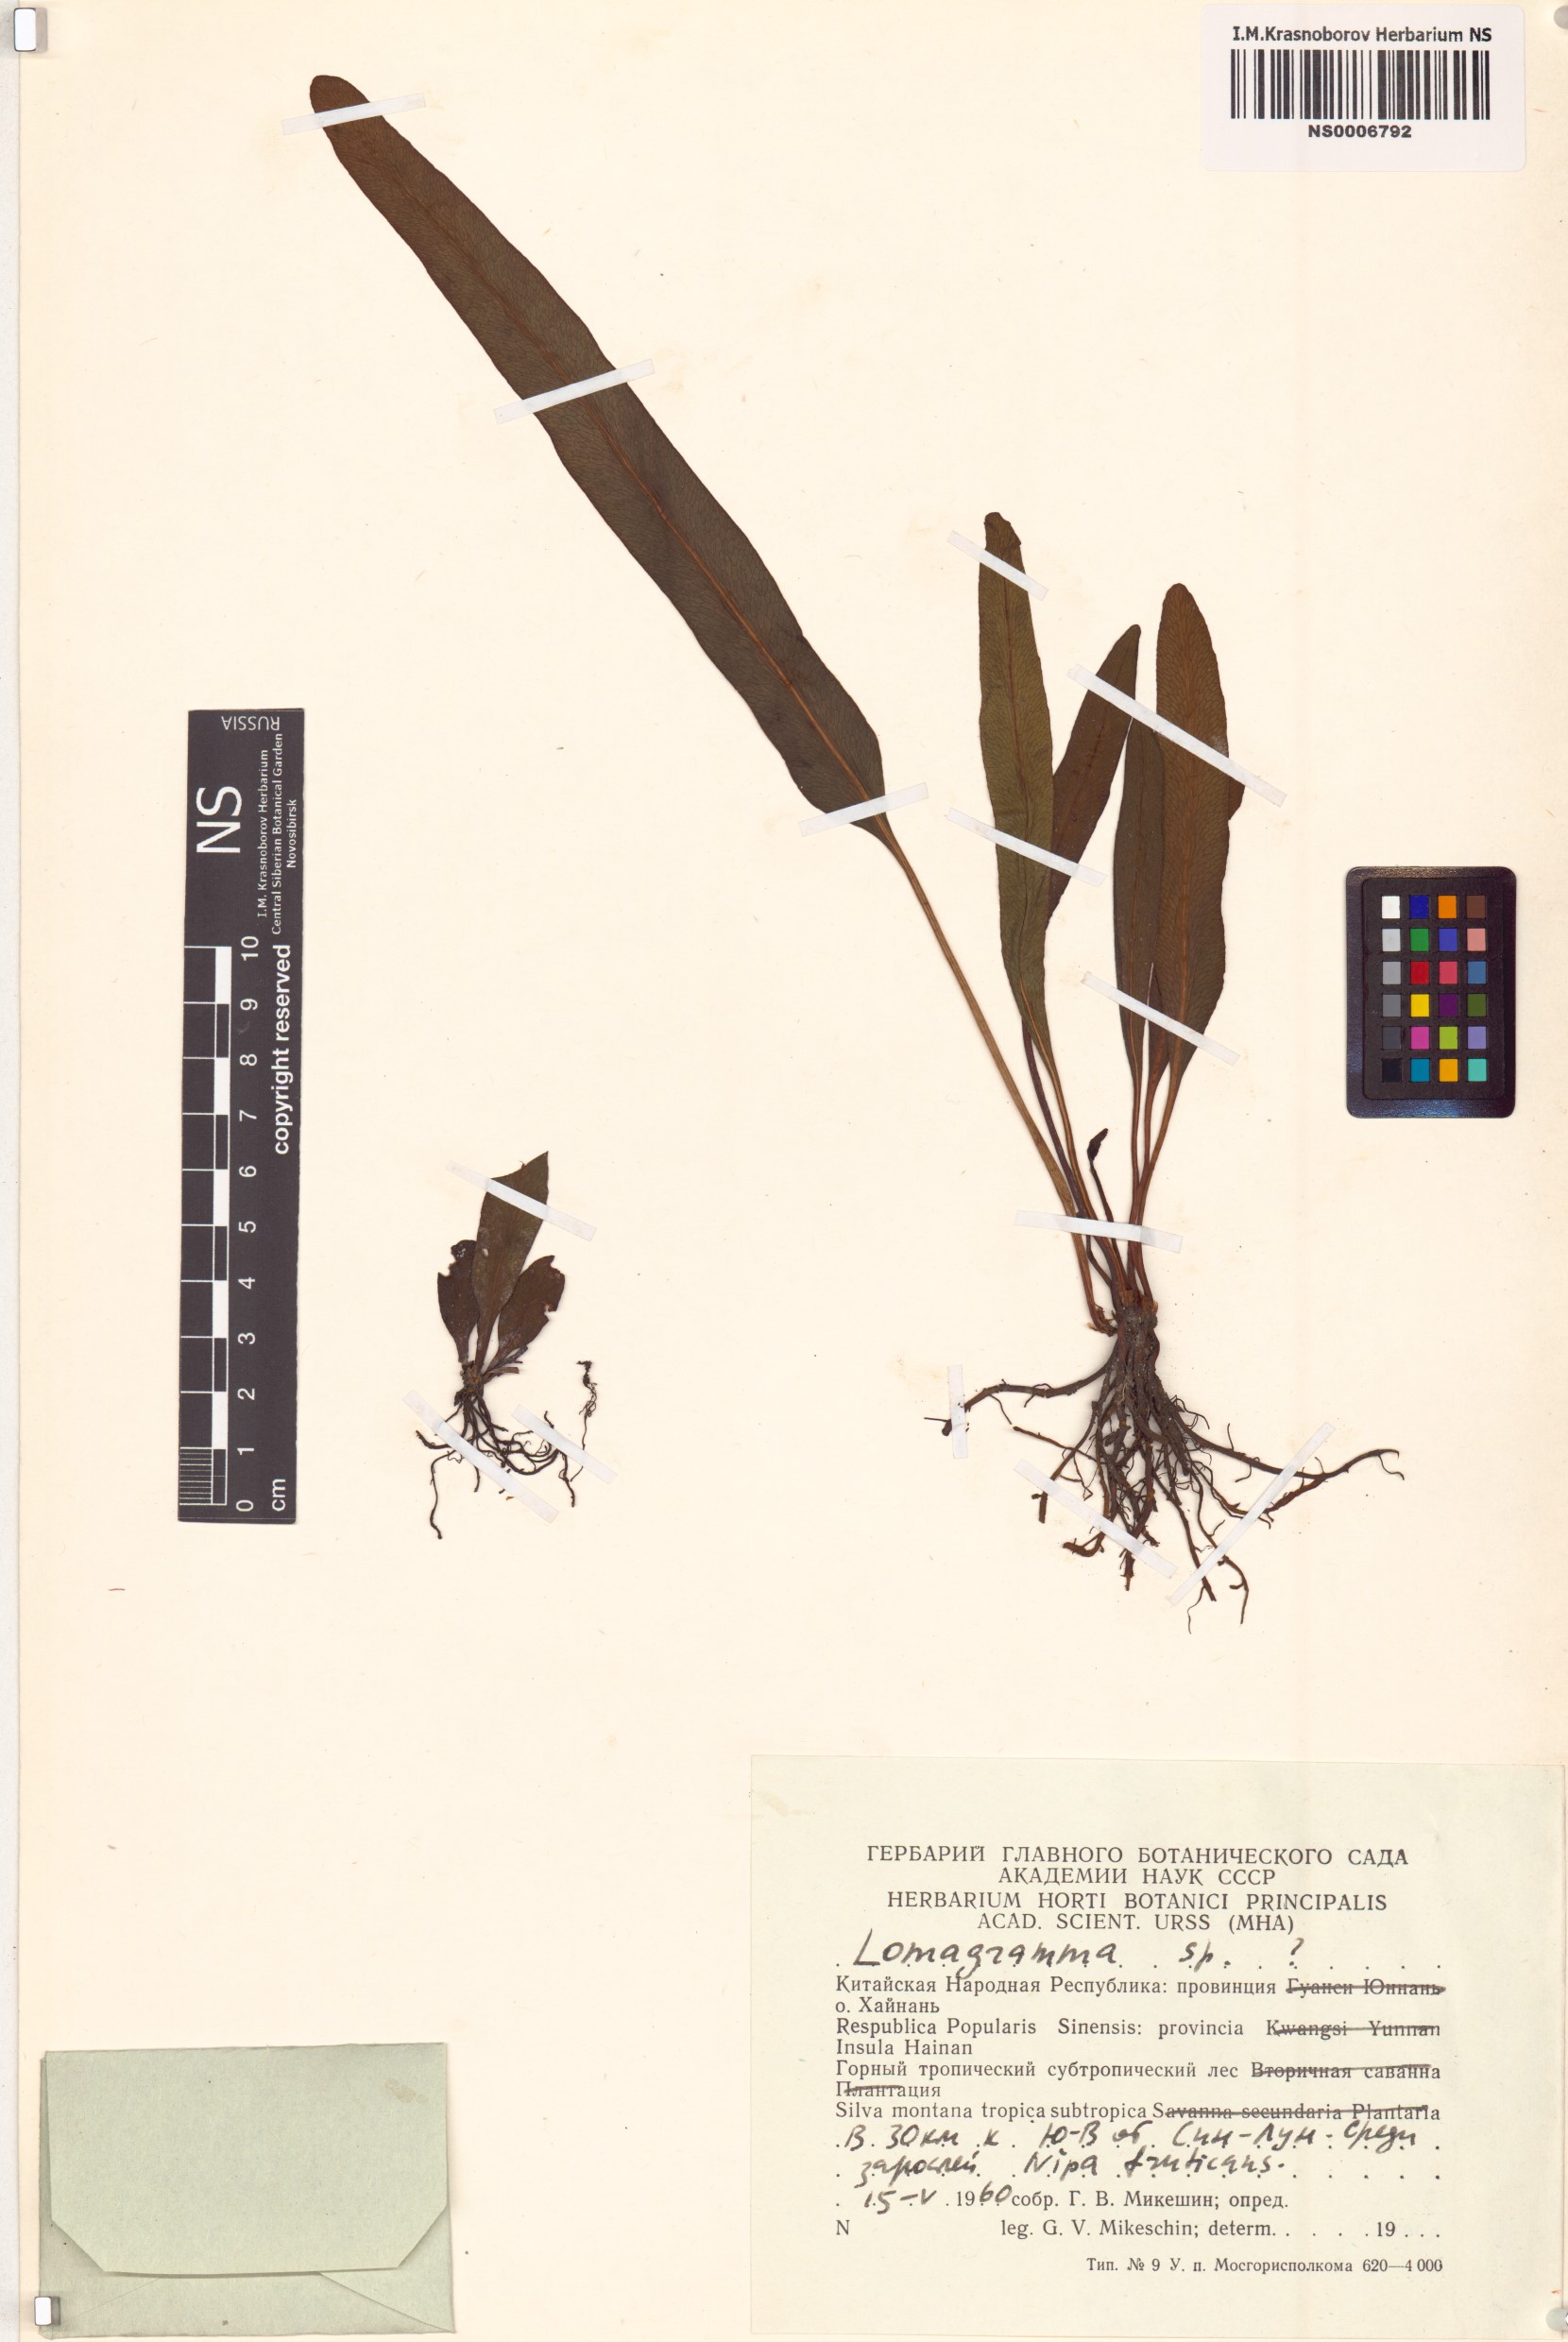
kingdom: Plantae
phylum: Tracheophyta
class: Polypodiopsida
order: Polypodiales
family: Dryopteridaceae
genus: Lomagramma
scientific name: Lomagramma
